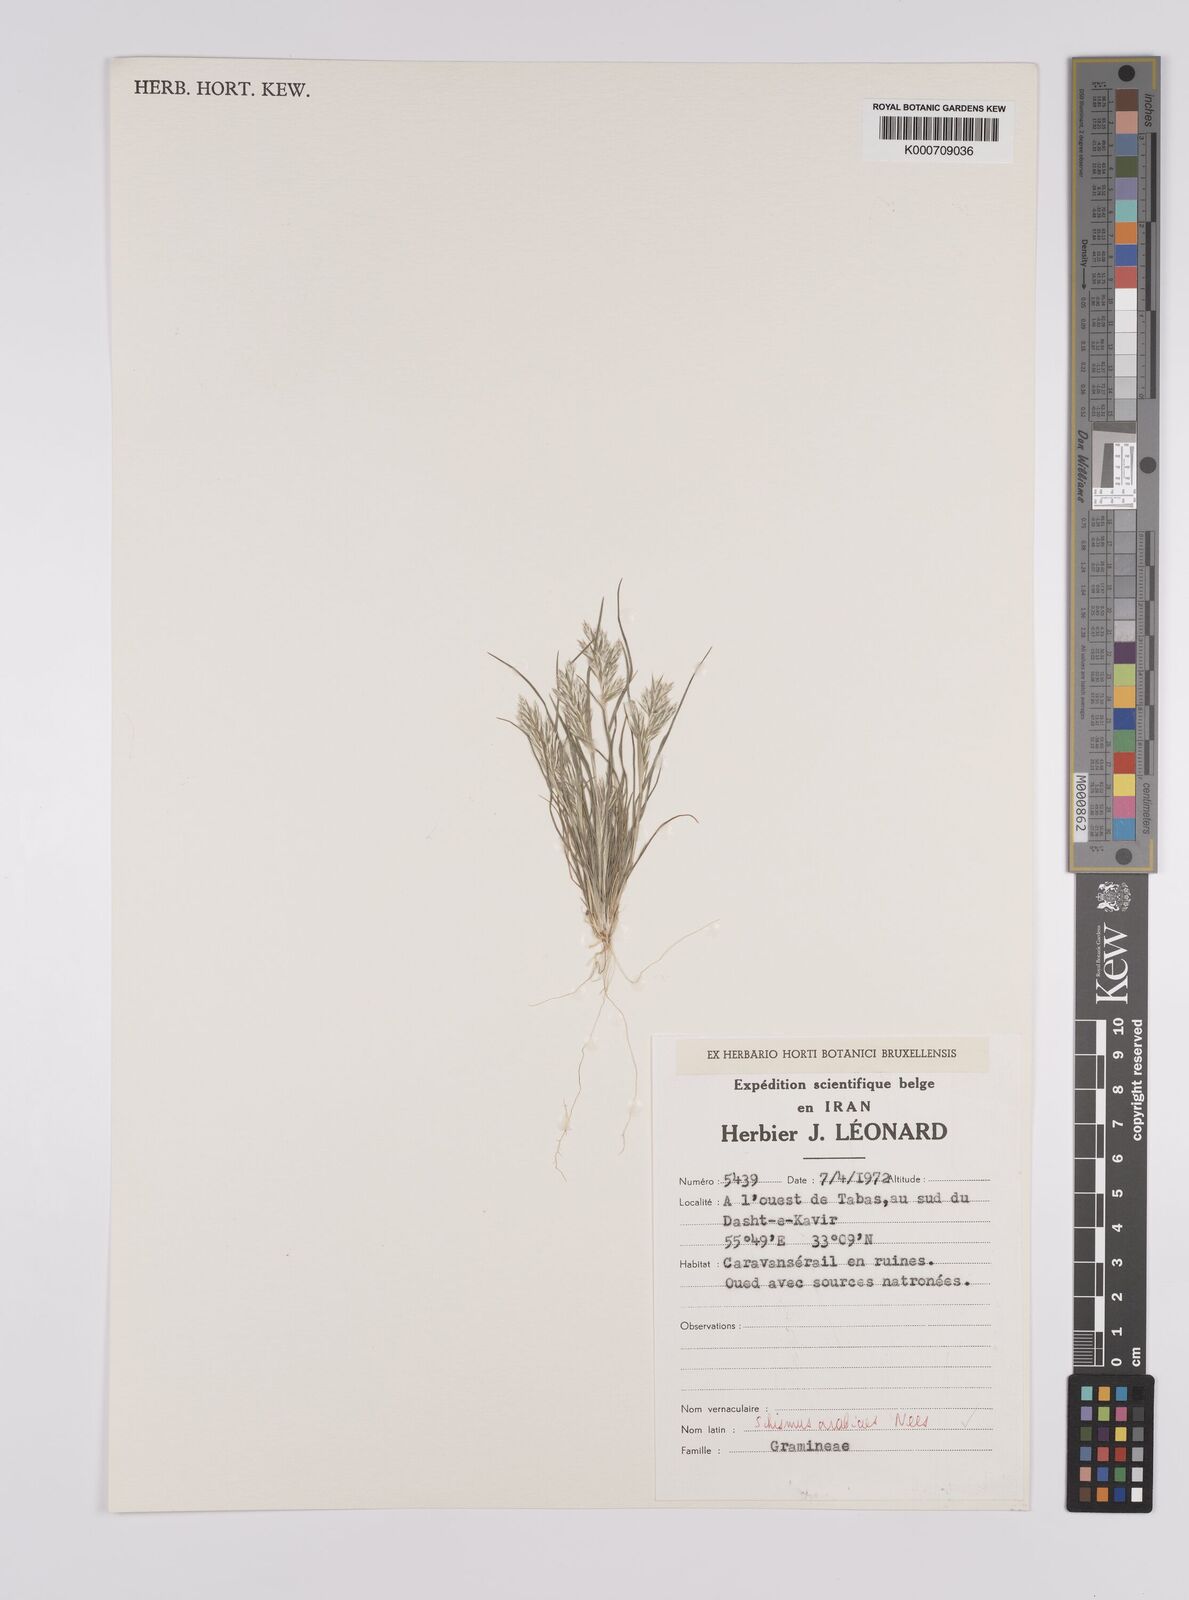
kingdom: Plantae
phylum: Tracheophyta
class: Liliopsida
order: Poales
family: Poaceae
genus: Schismus
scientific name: Schismus arabicus
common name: Arabian schismus
